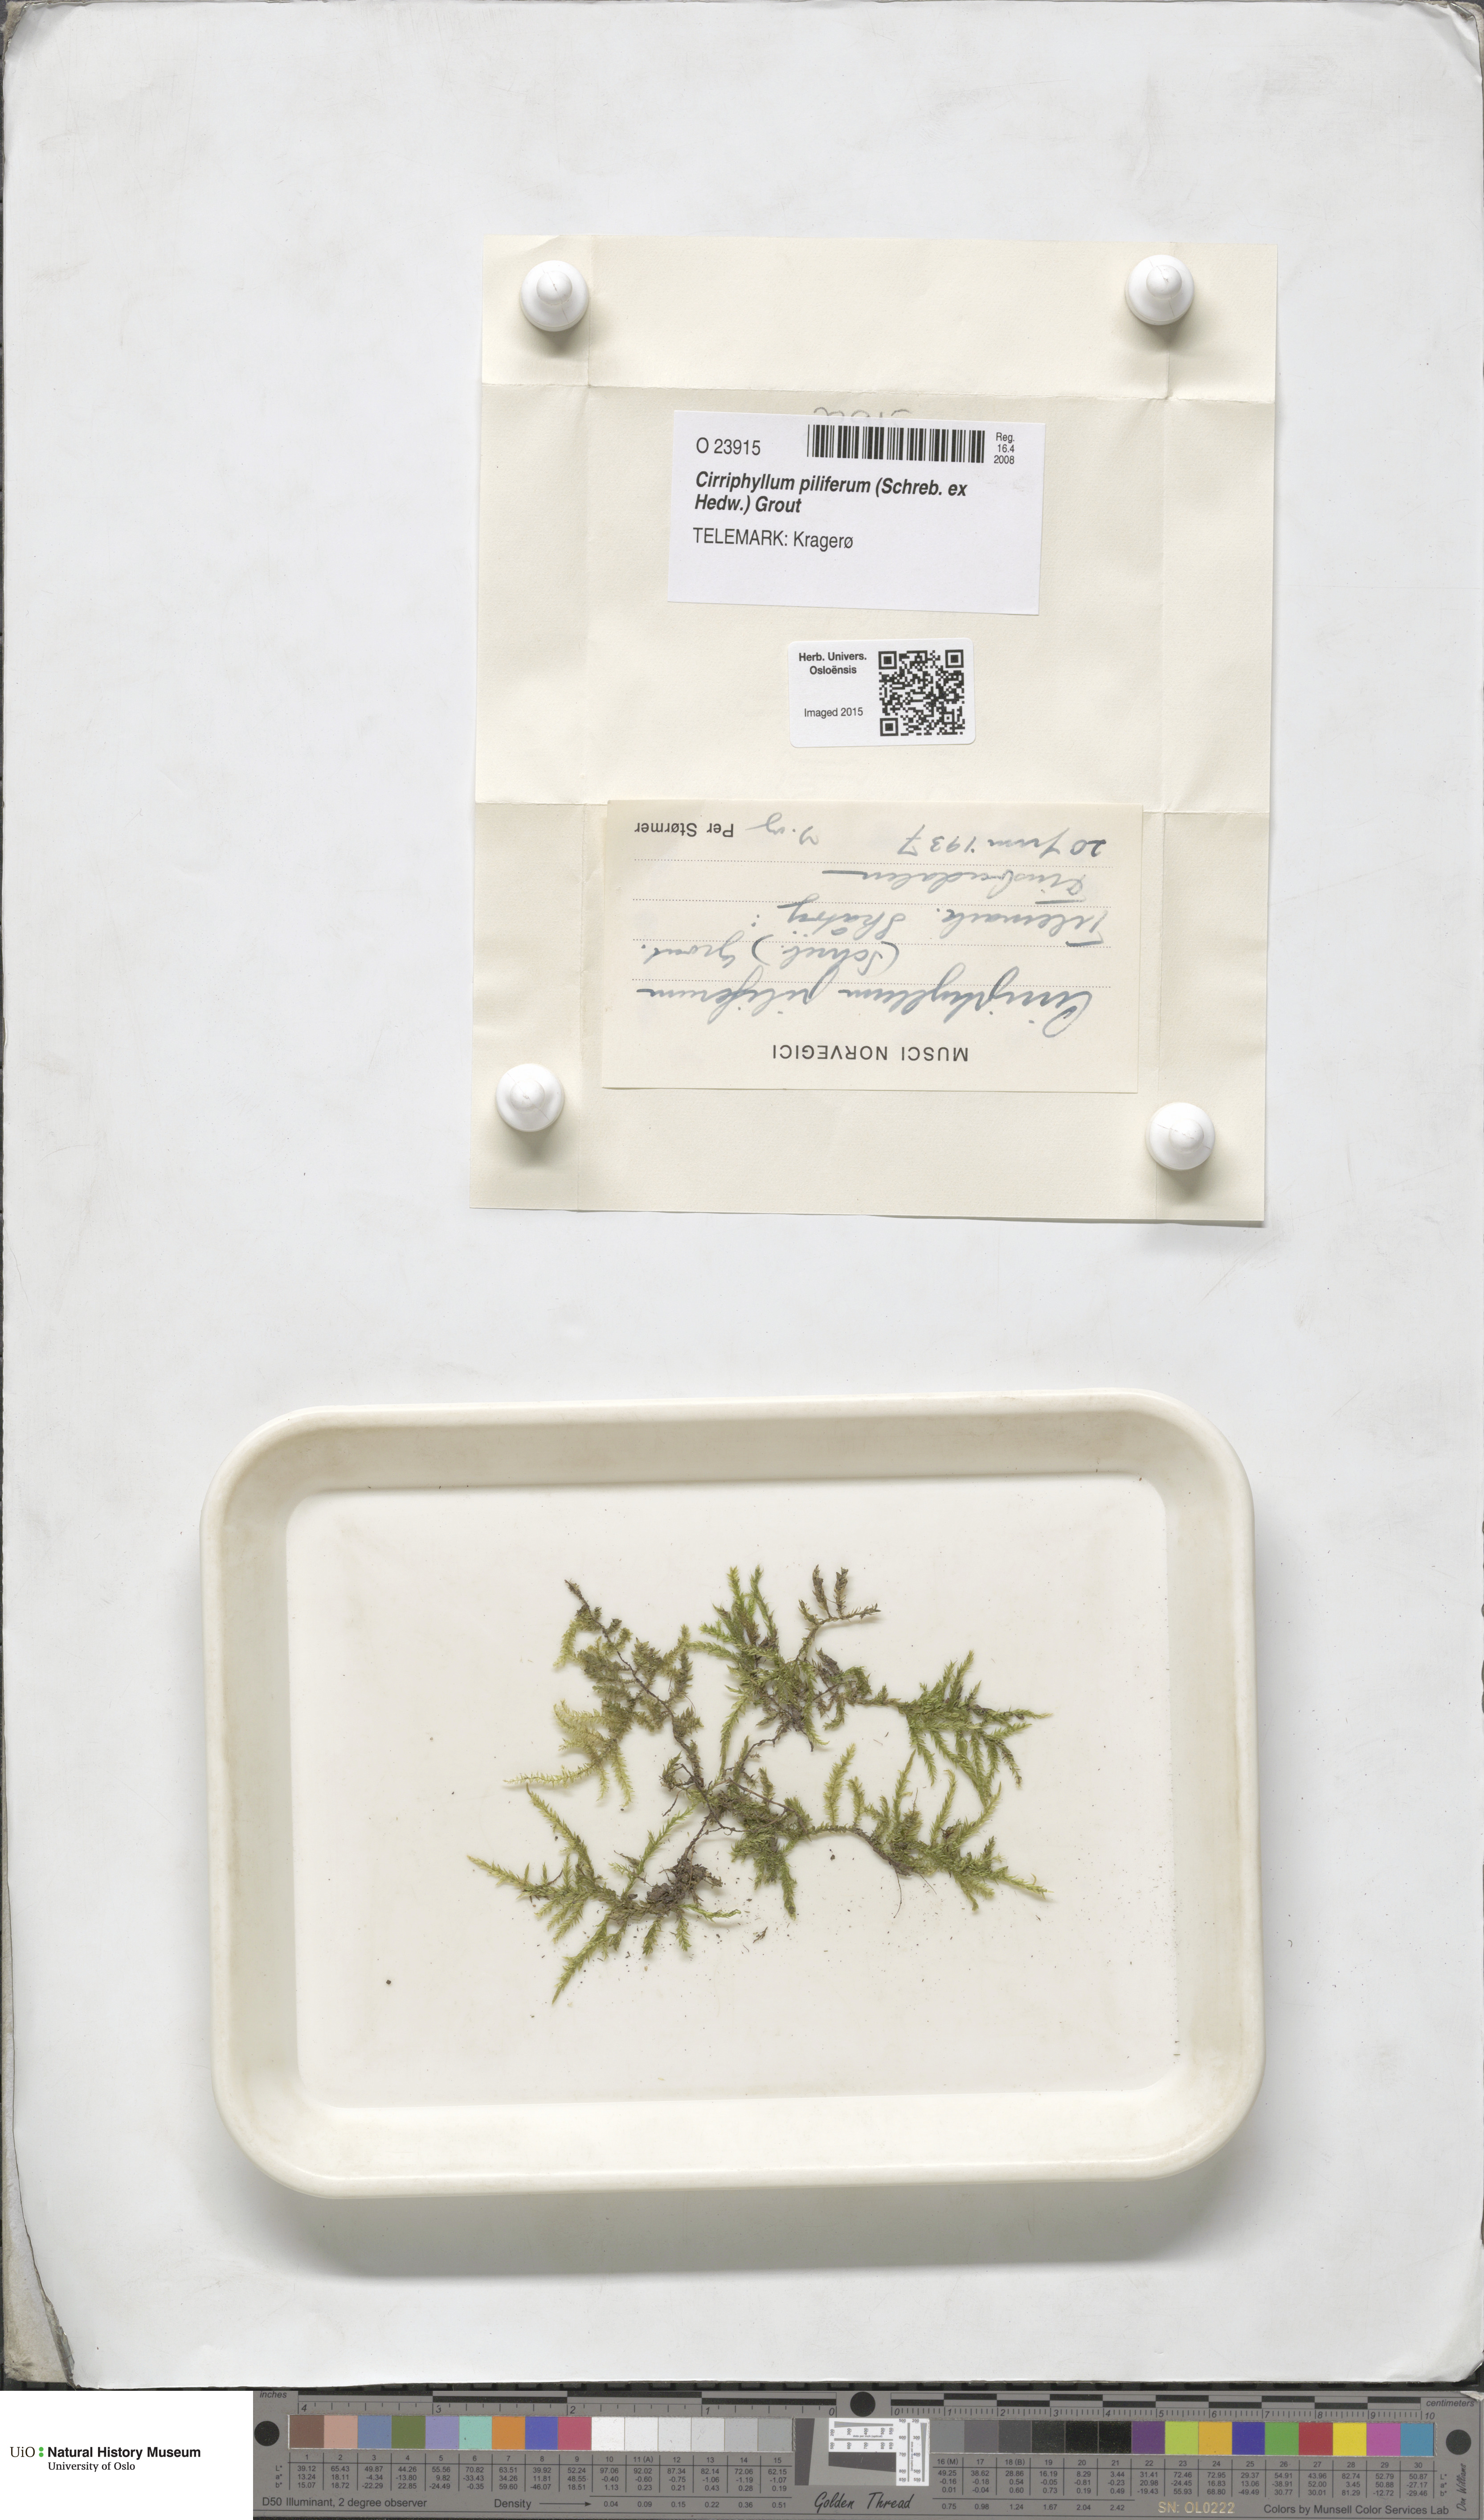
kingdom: Plantae
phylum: Bryophyta
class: Bryopsida
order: Hypnales
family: Brachytheciaceae
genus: Cirriphyllum
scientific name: Cirriphyllum piliferum
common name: Hair-pointed moss
